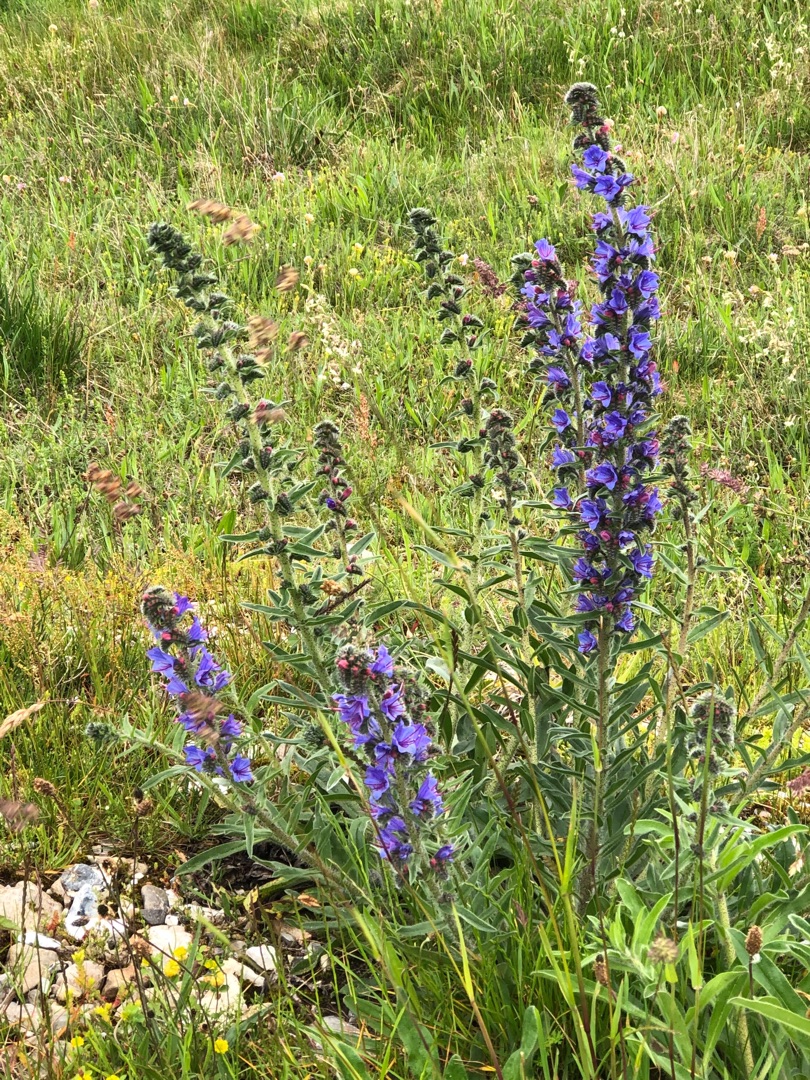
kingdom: Plantae
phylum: Tracheophyta
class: Magnoliopsida
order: Boraginales
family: Boraginaceae
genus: Echium
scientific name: Echium vulgare
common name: Slangehoved
